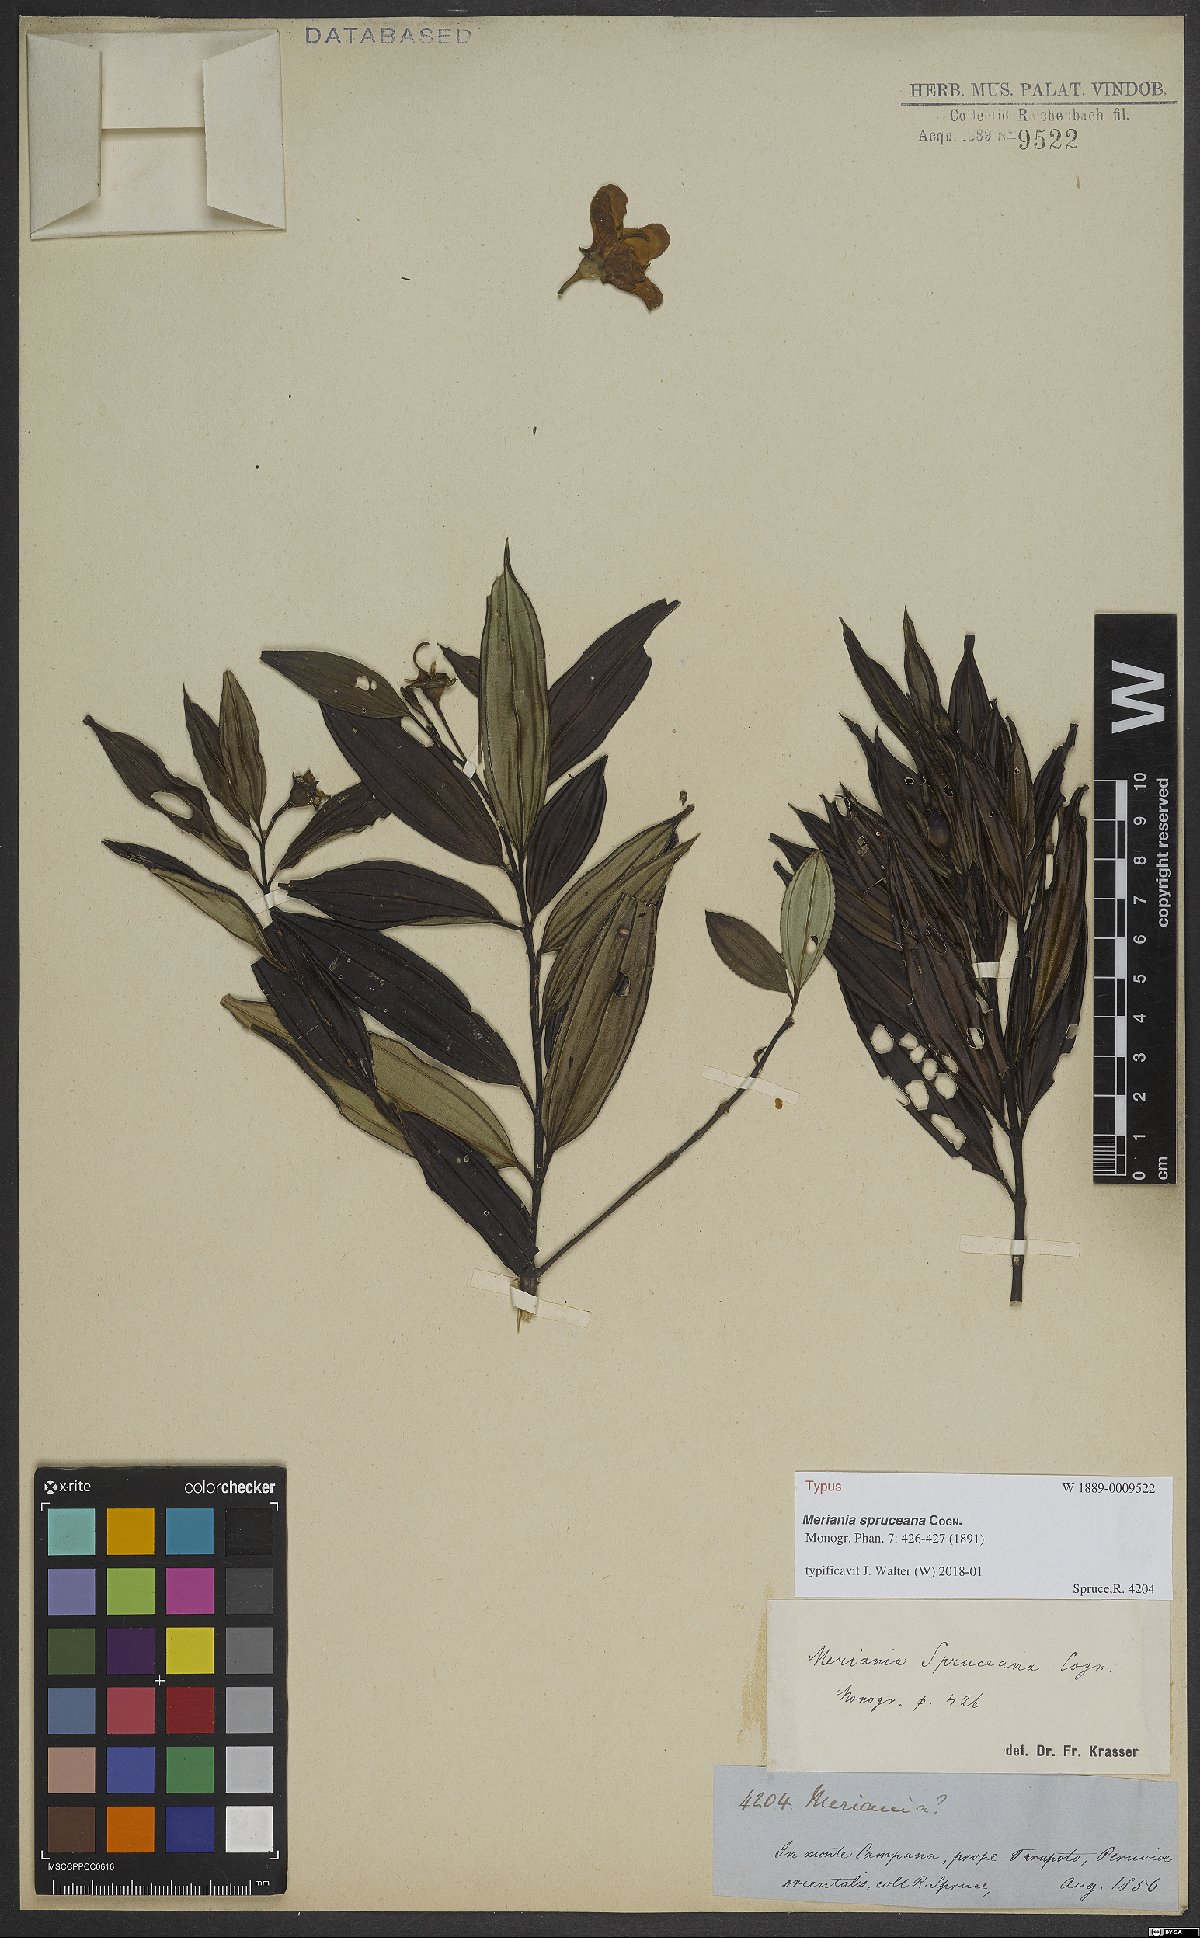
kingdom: Plantae
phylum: Tracheophyta
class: Magnoliopsida
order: Myrtales
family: Melastomataceae
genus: Meriania
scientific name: Meriania speciosa
